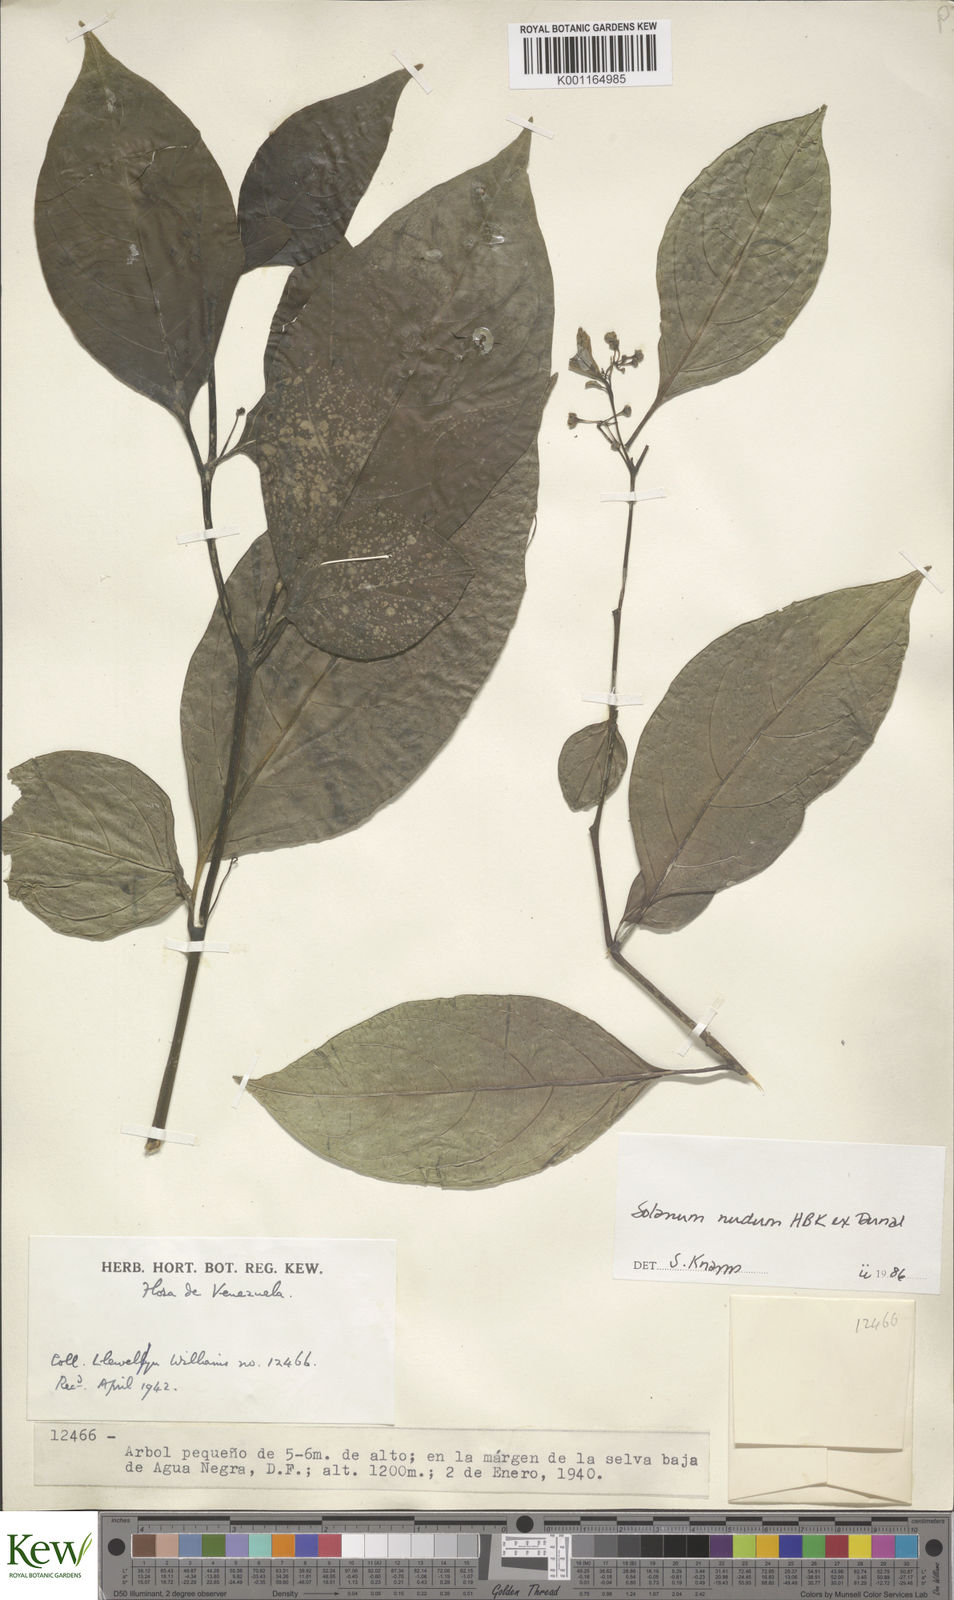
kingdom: Plantae
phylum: Tracheophyta
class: Magnoliopsida
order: Solanales
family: Solanaceae
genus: Solanum
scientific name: Solanum nudum
